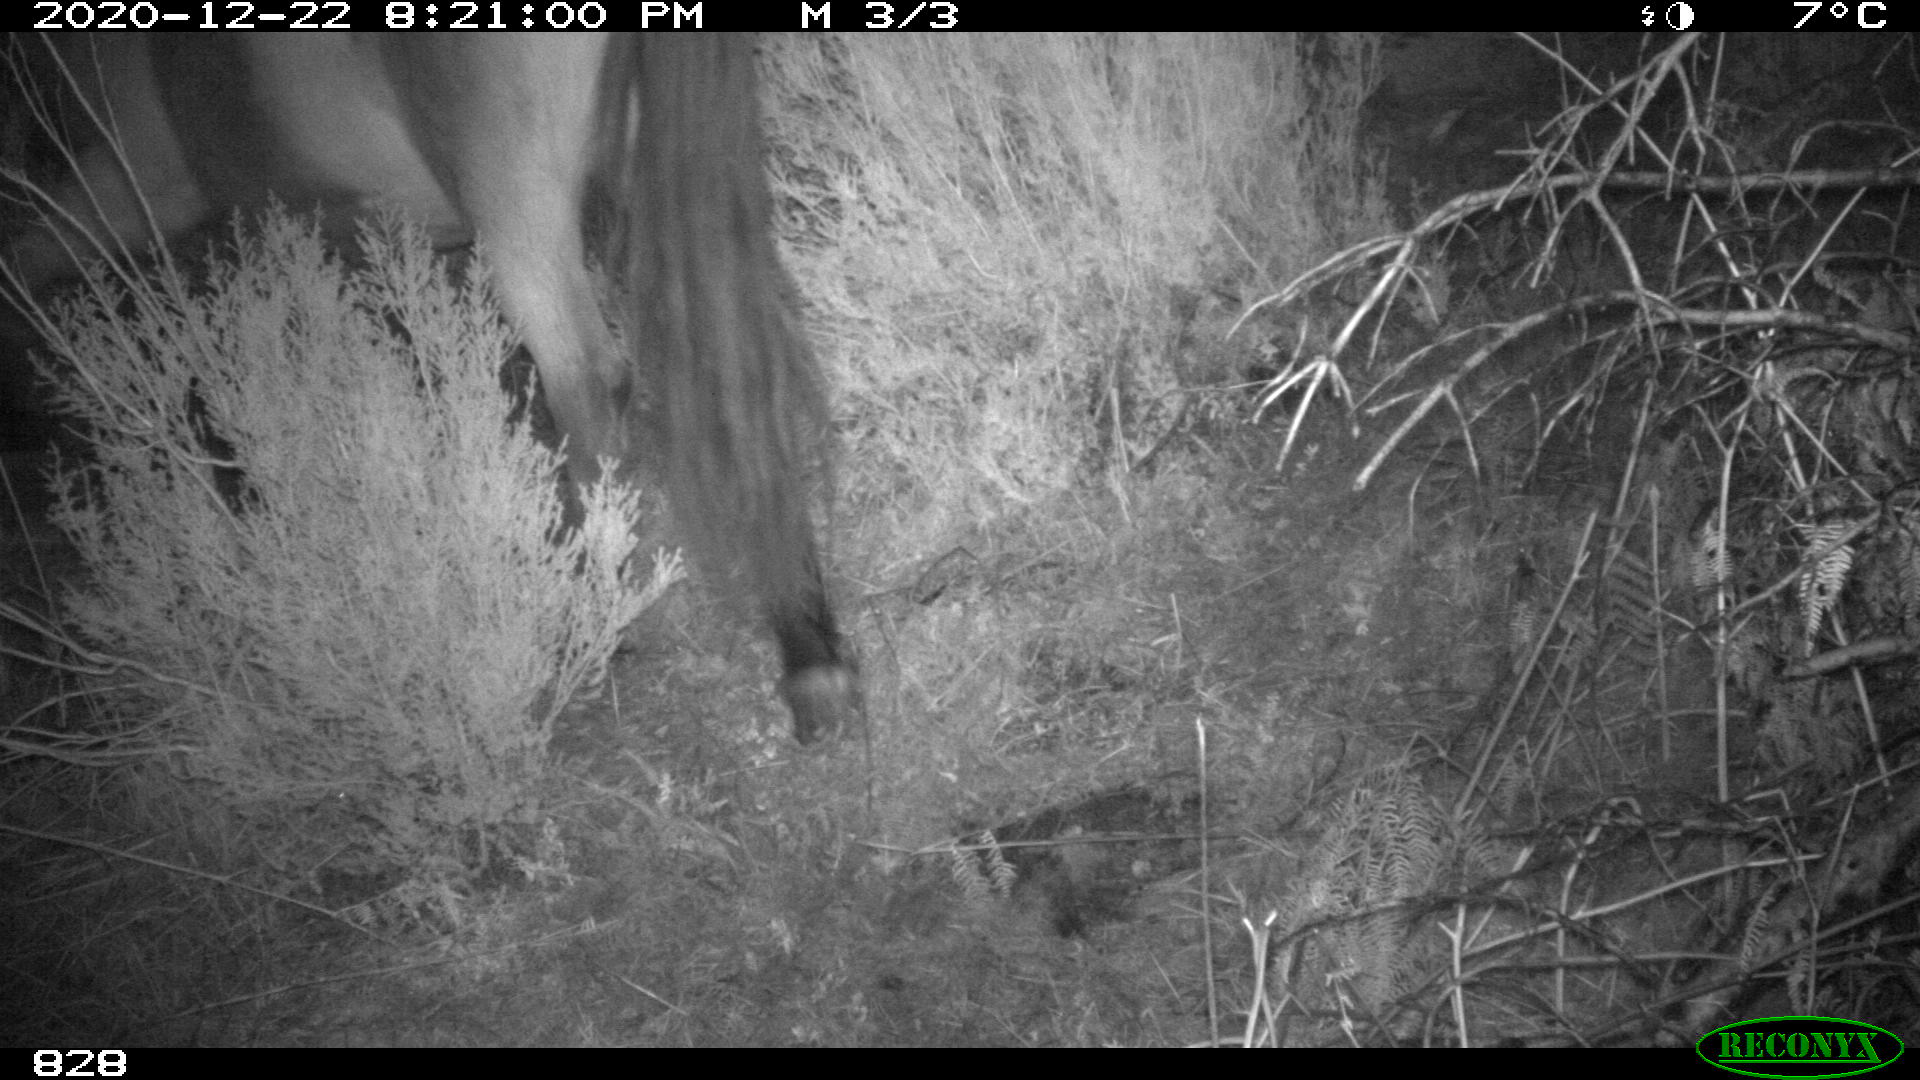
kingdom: Animalia
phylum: Chordata
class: Mammalia
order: Perissodactyla
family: Equidae
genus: Equus
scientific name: Equus caballus
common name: Horse
